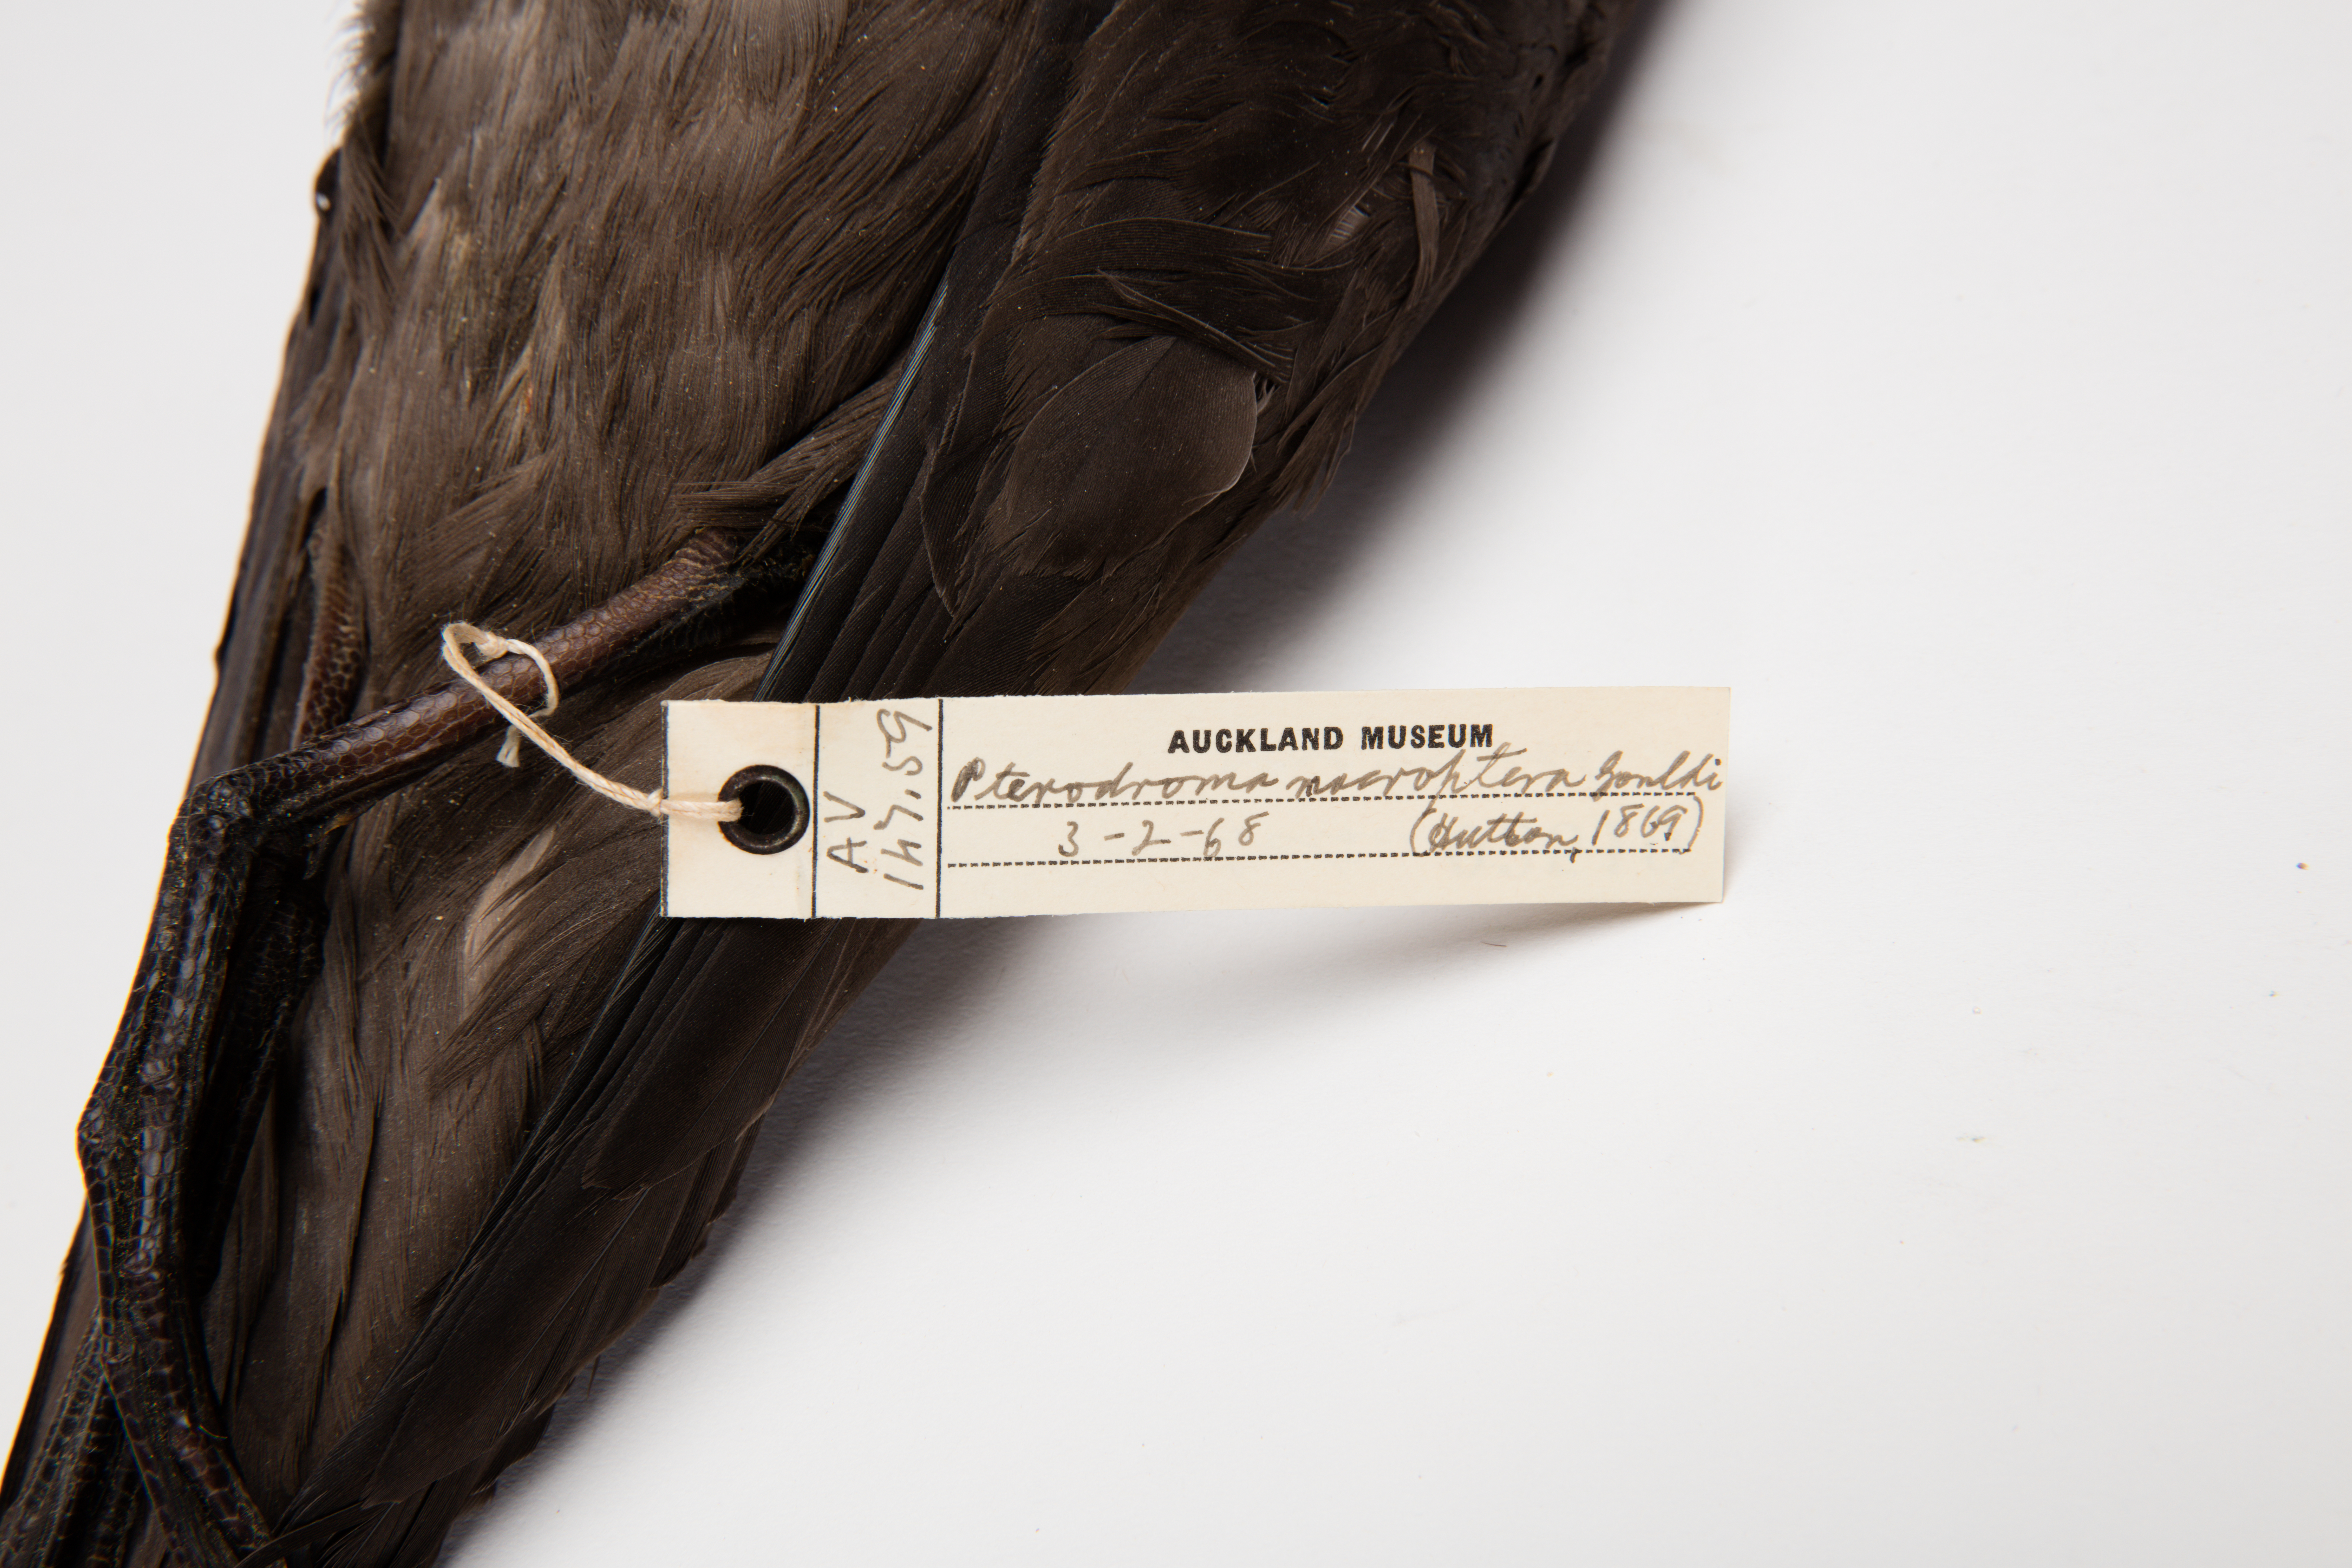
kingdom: Animalia
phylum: Chordata
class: Aves
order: Procellariiformes
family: Procellariidae
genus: Pterodroma
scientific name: Pterodroma macroptera
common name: Great-winged petrel
